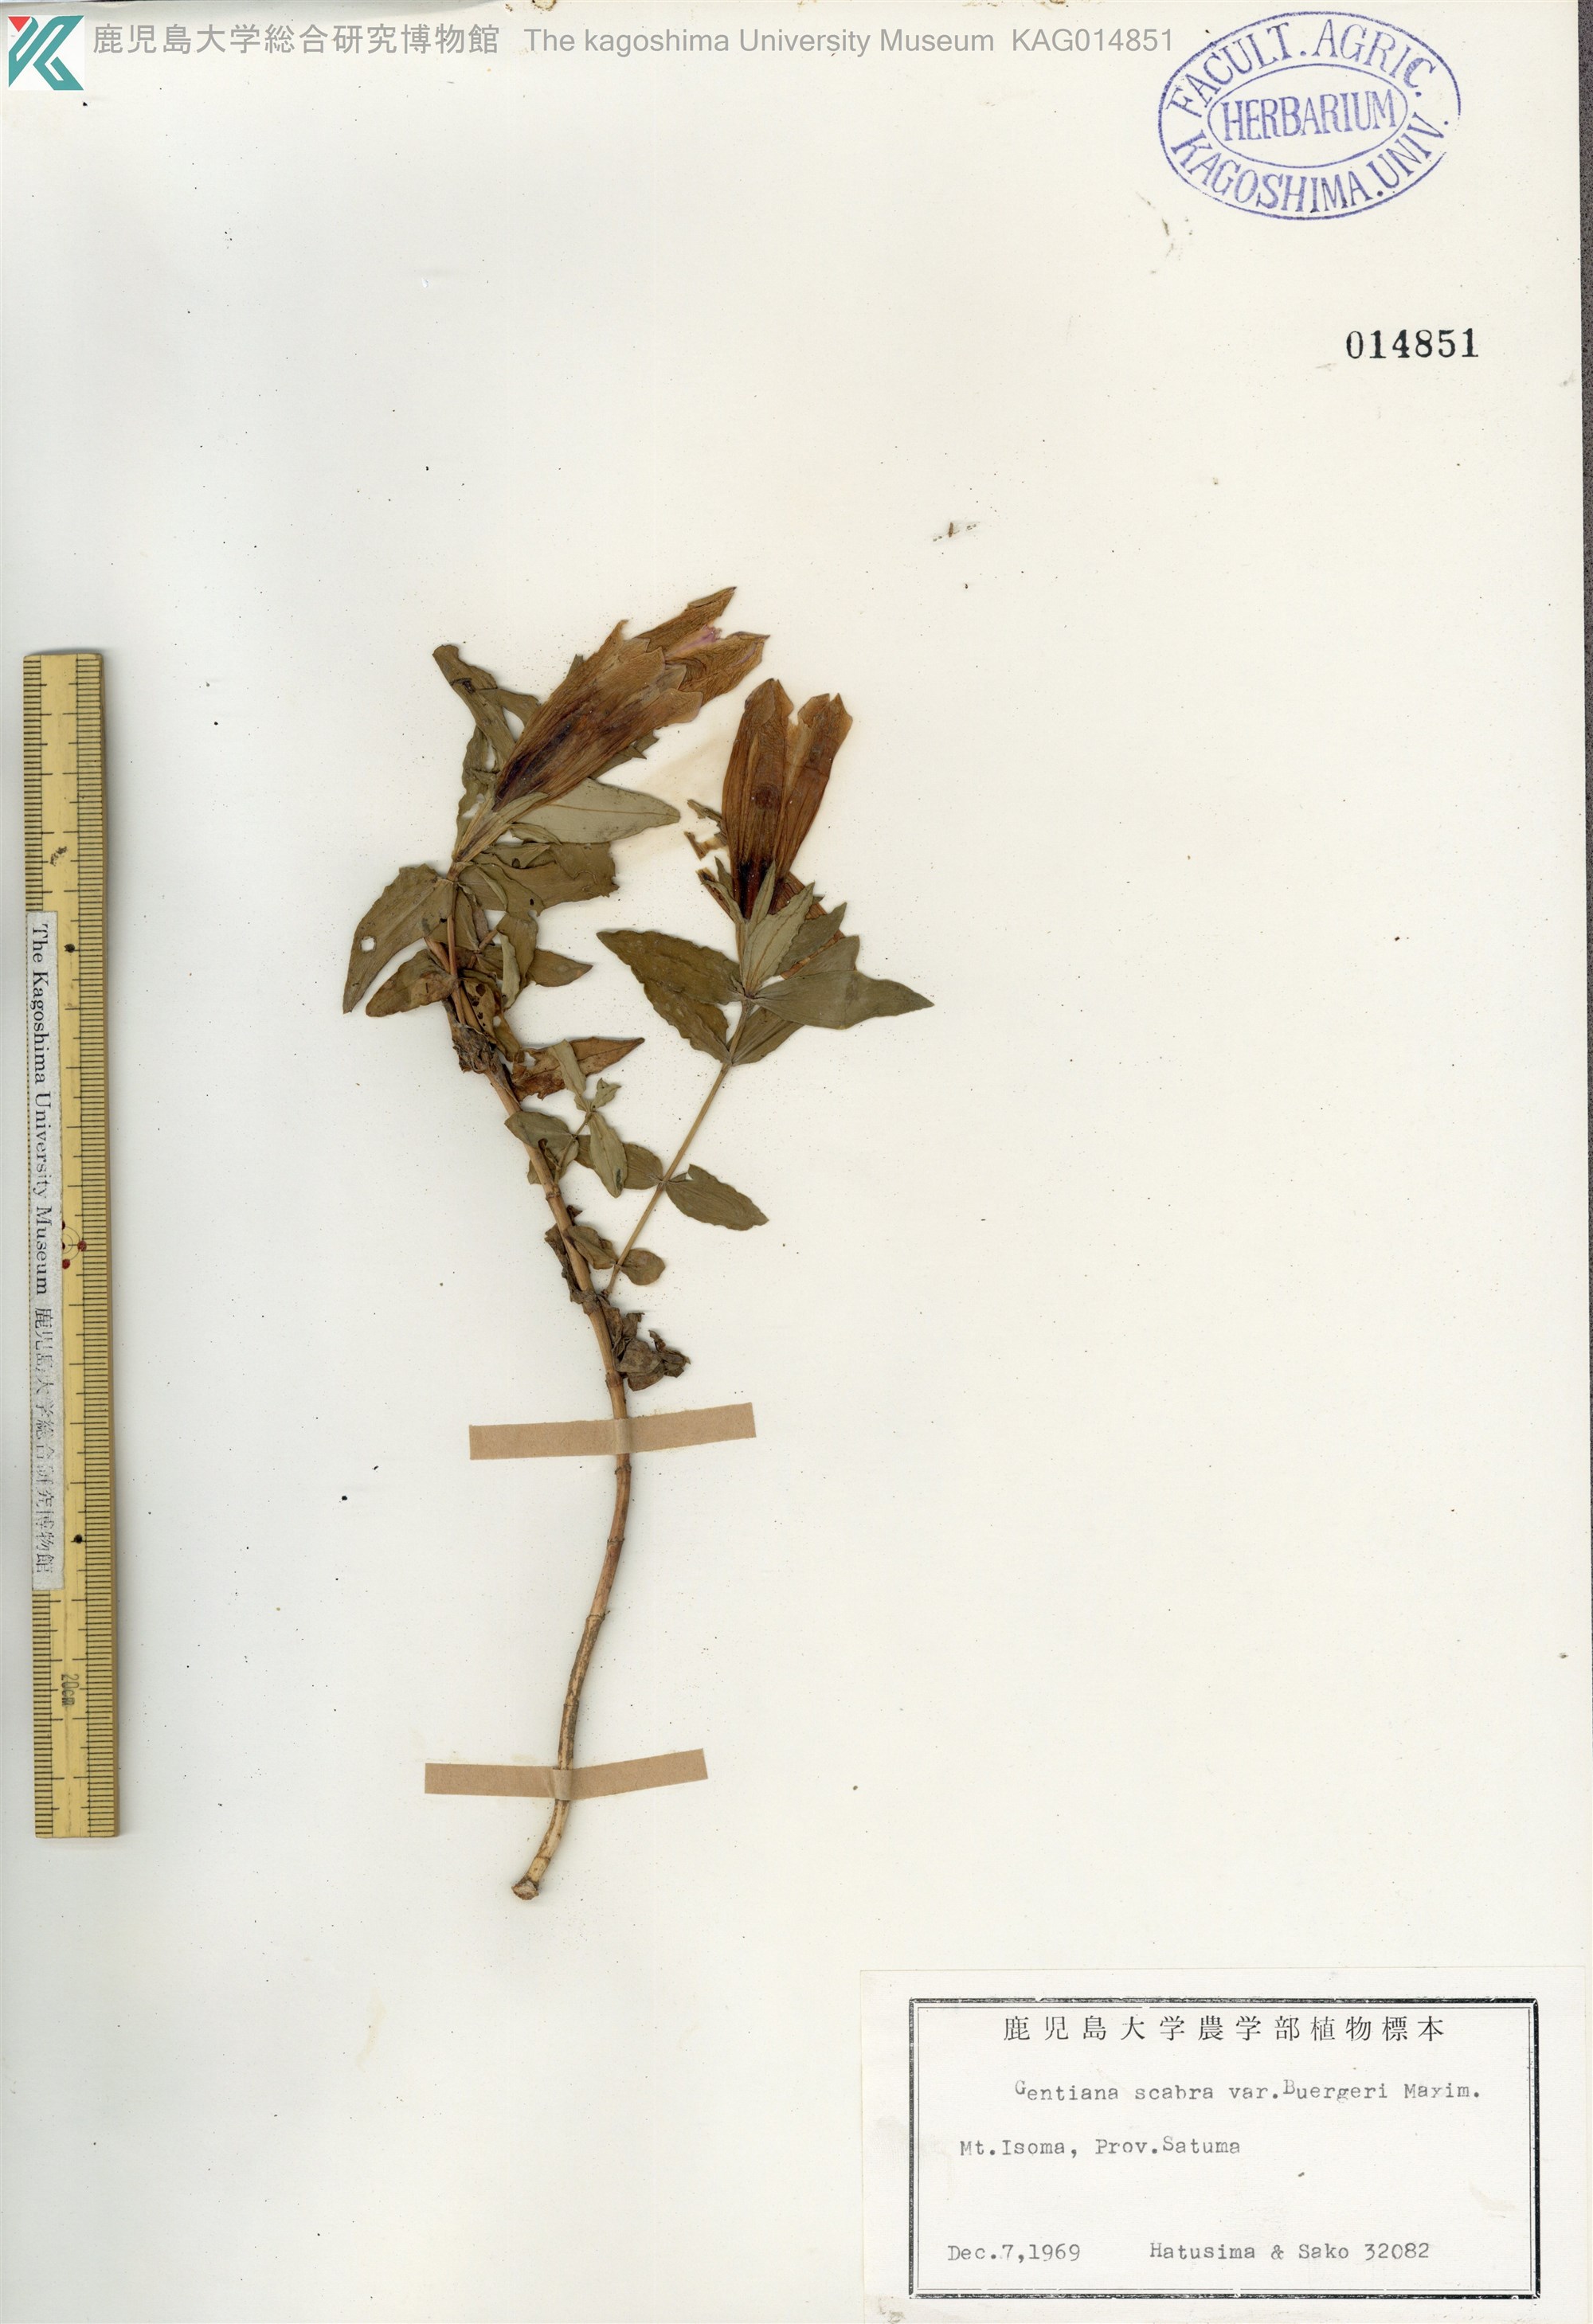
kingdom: Plantae
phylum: Tracheophyta
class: Magnoliopsida
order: Gentianales
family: Gentianaceae
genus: Gentiana
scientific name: Gentiana scabra
